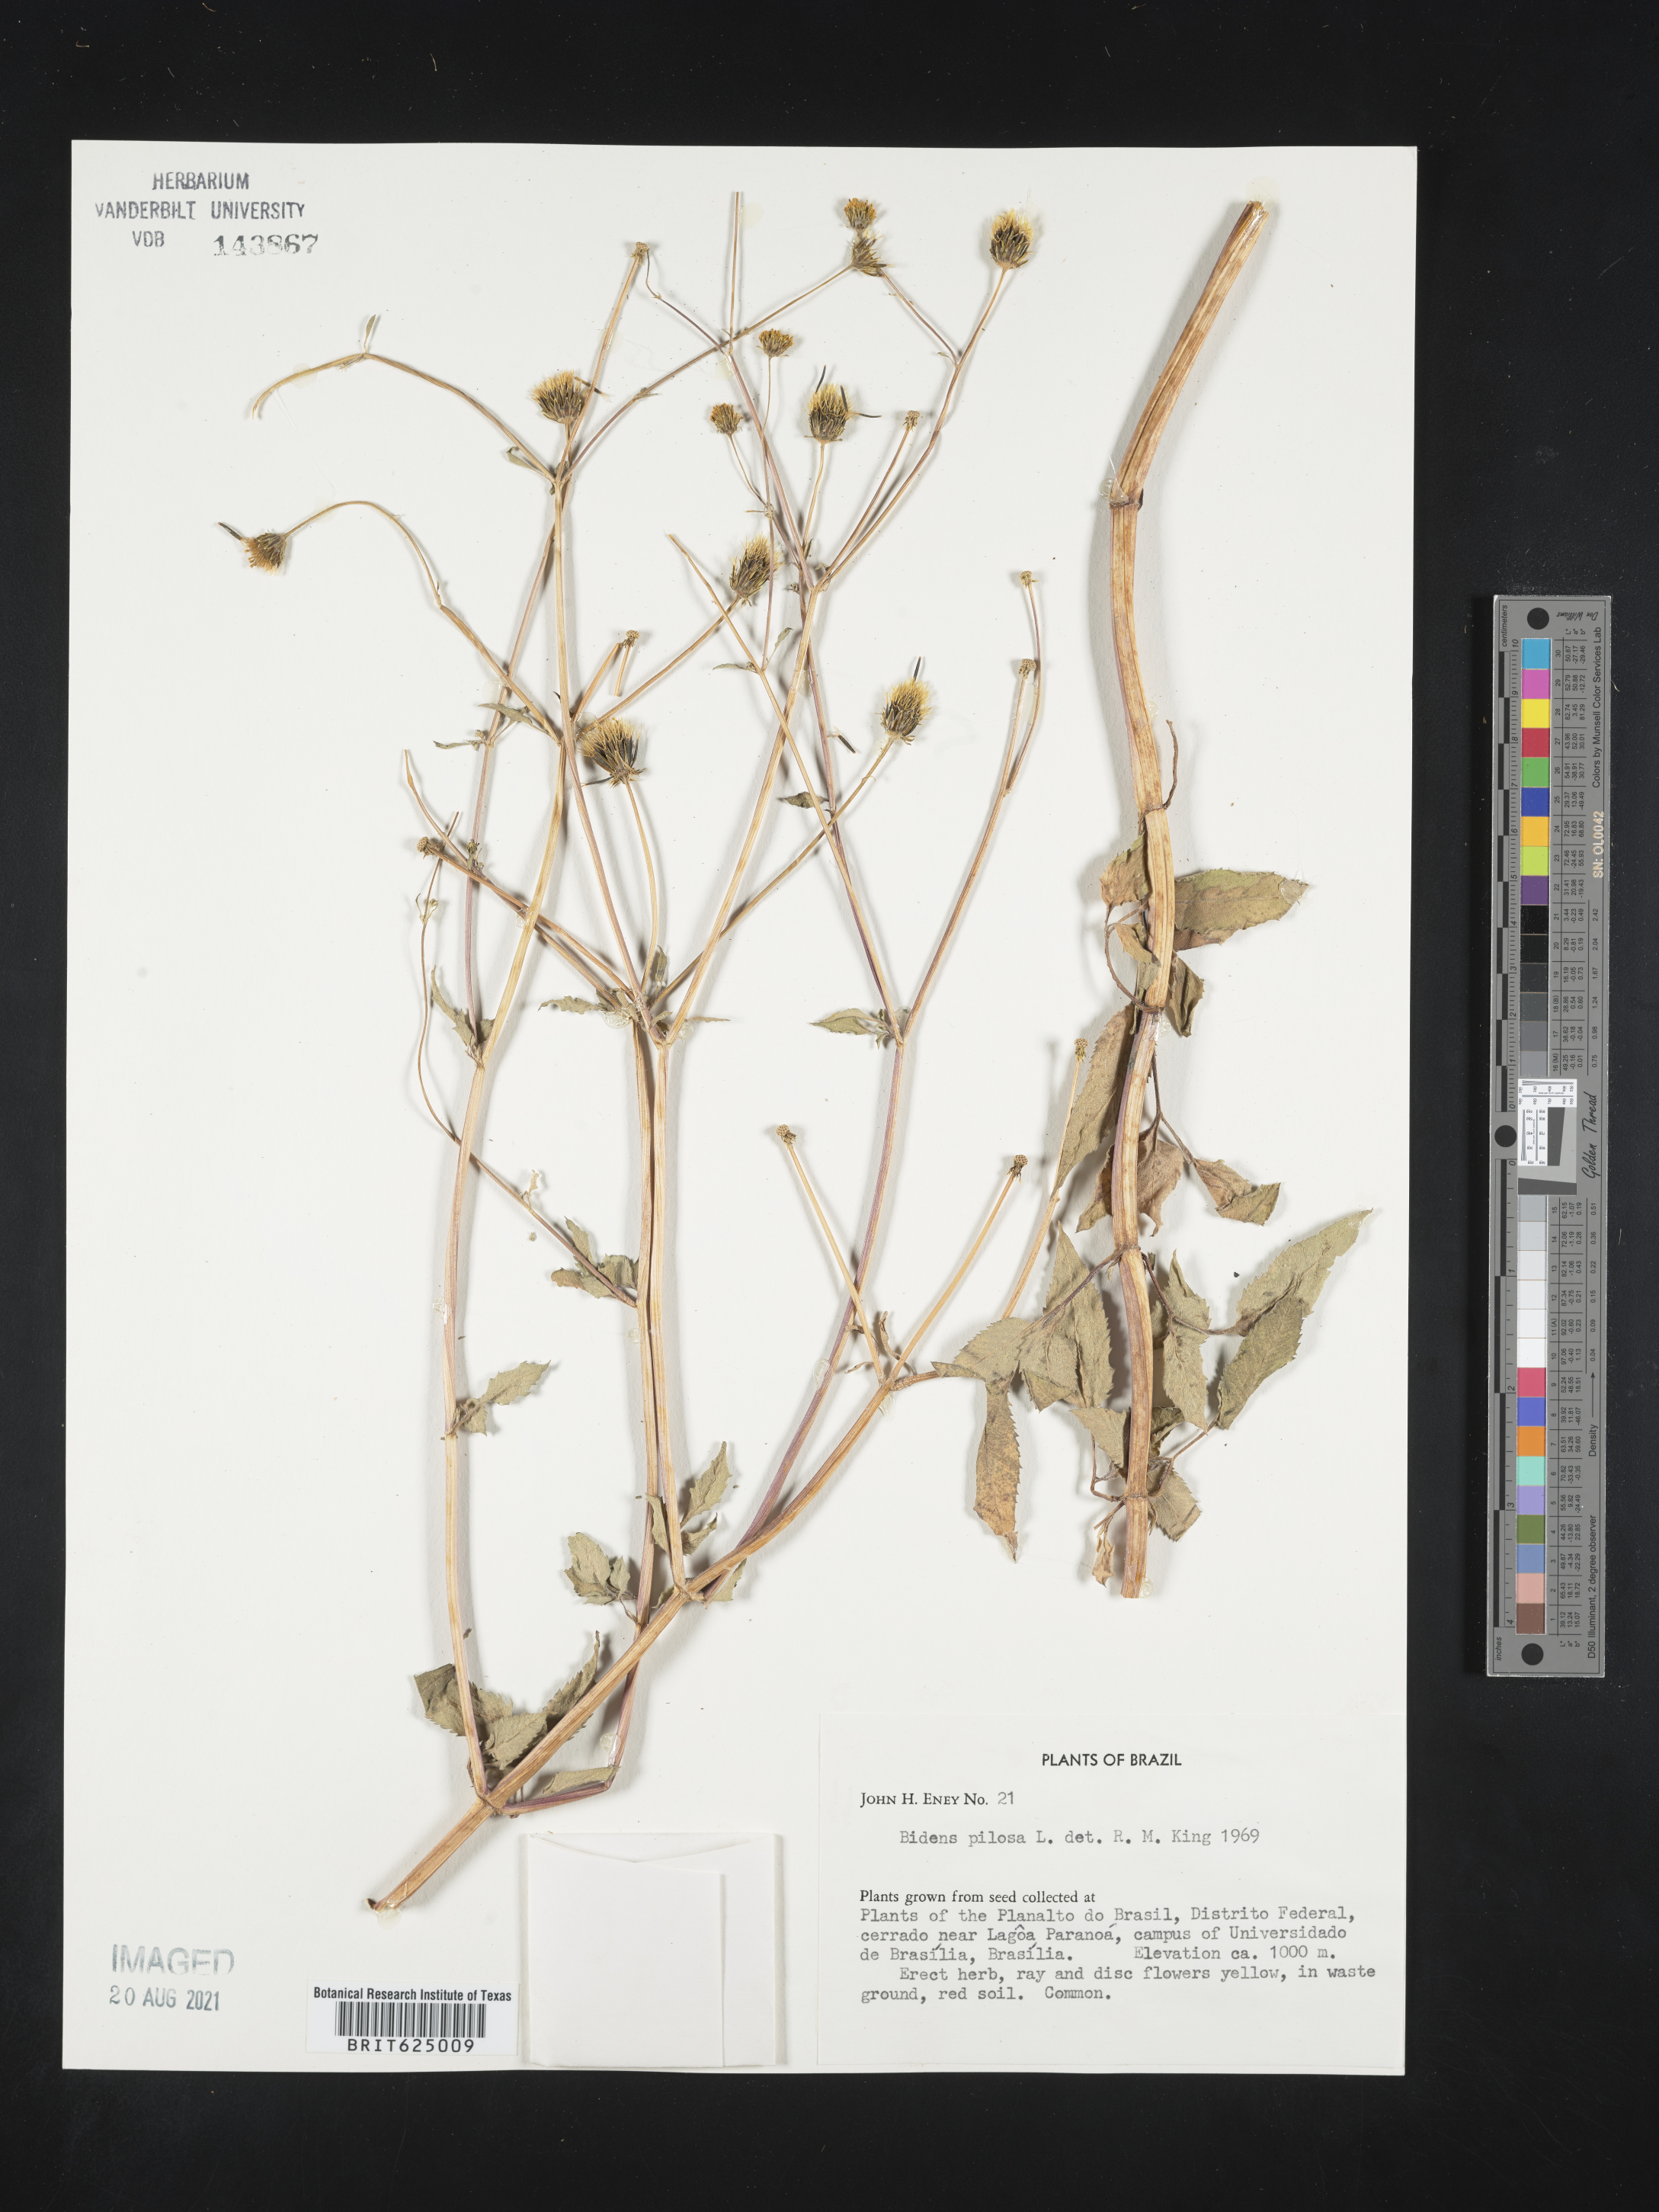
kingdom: Plantae
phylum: Tracheophyta
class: Magnoliopsida
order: Asterales
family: Asteraceae
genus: Bidens
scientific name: Bidens pilosa
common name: Black-jack
